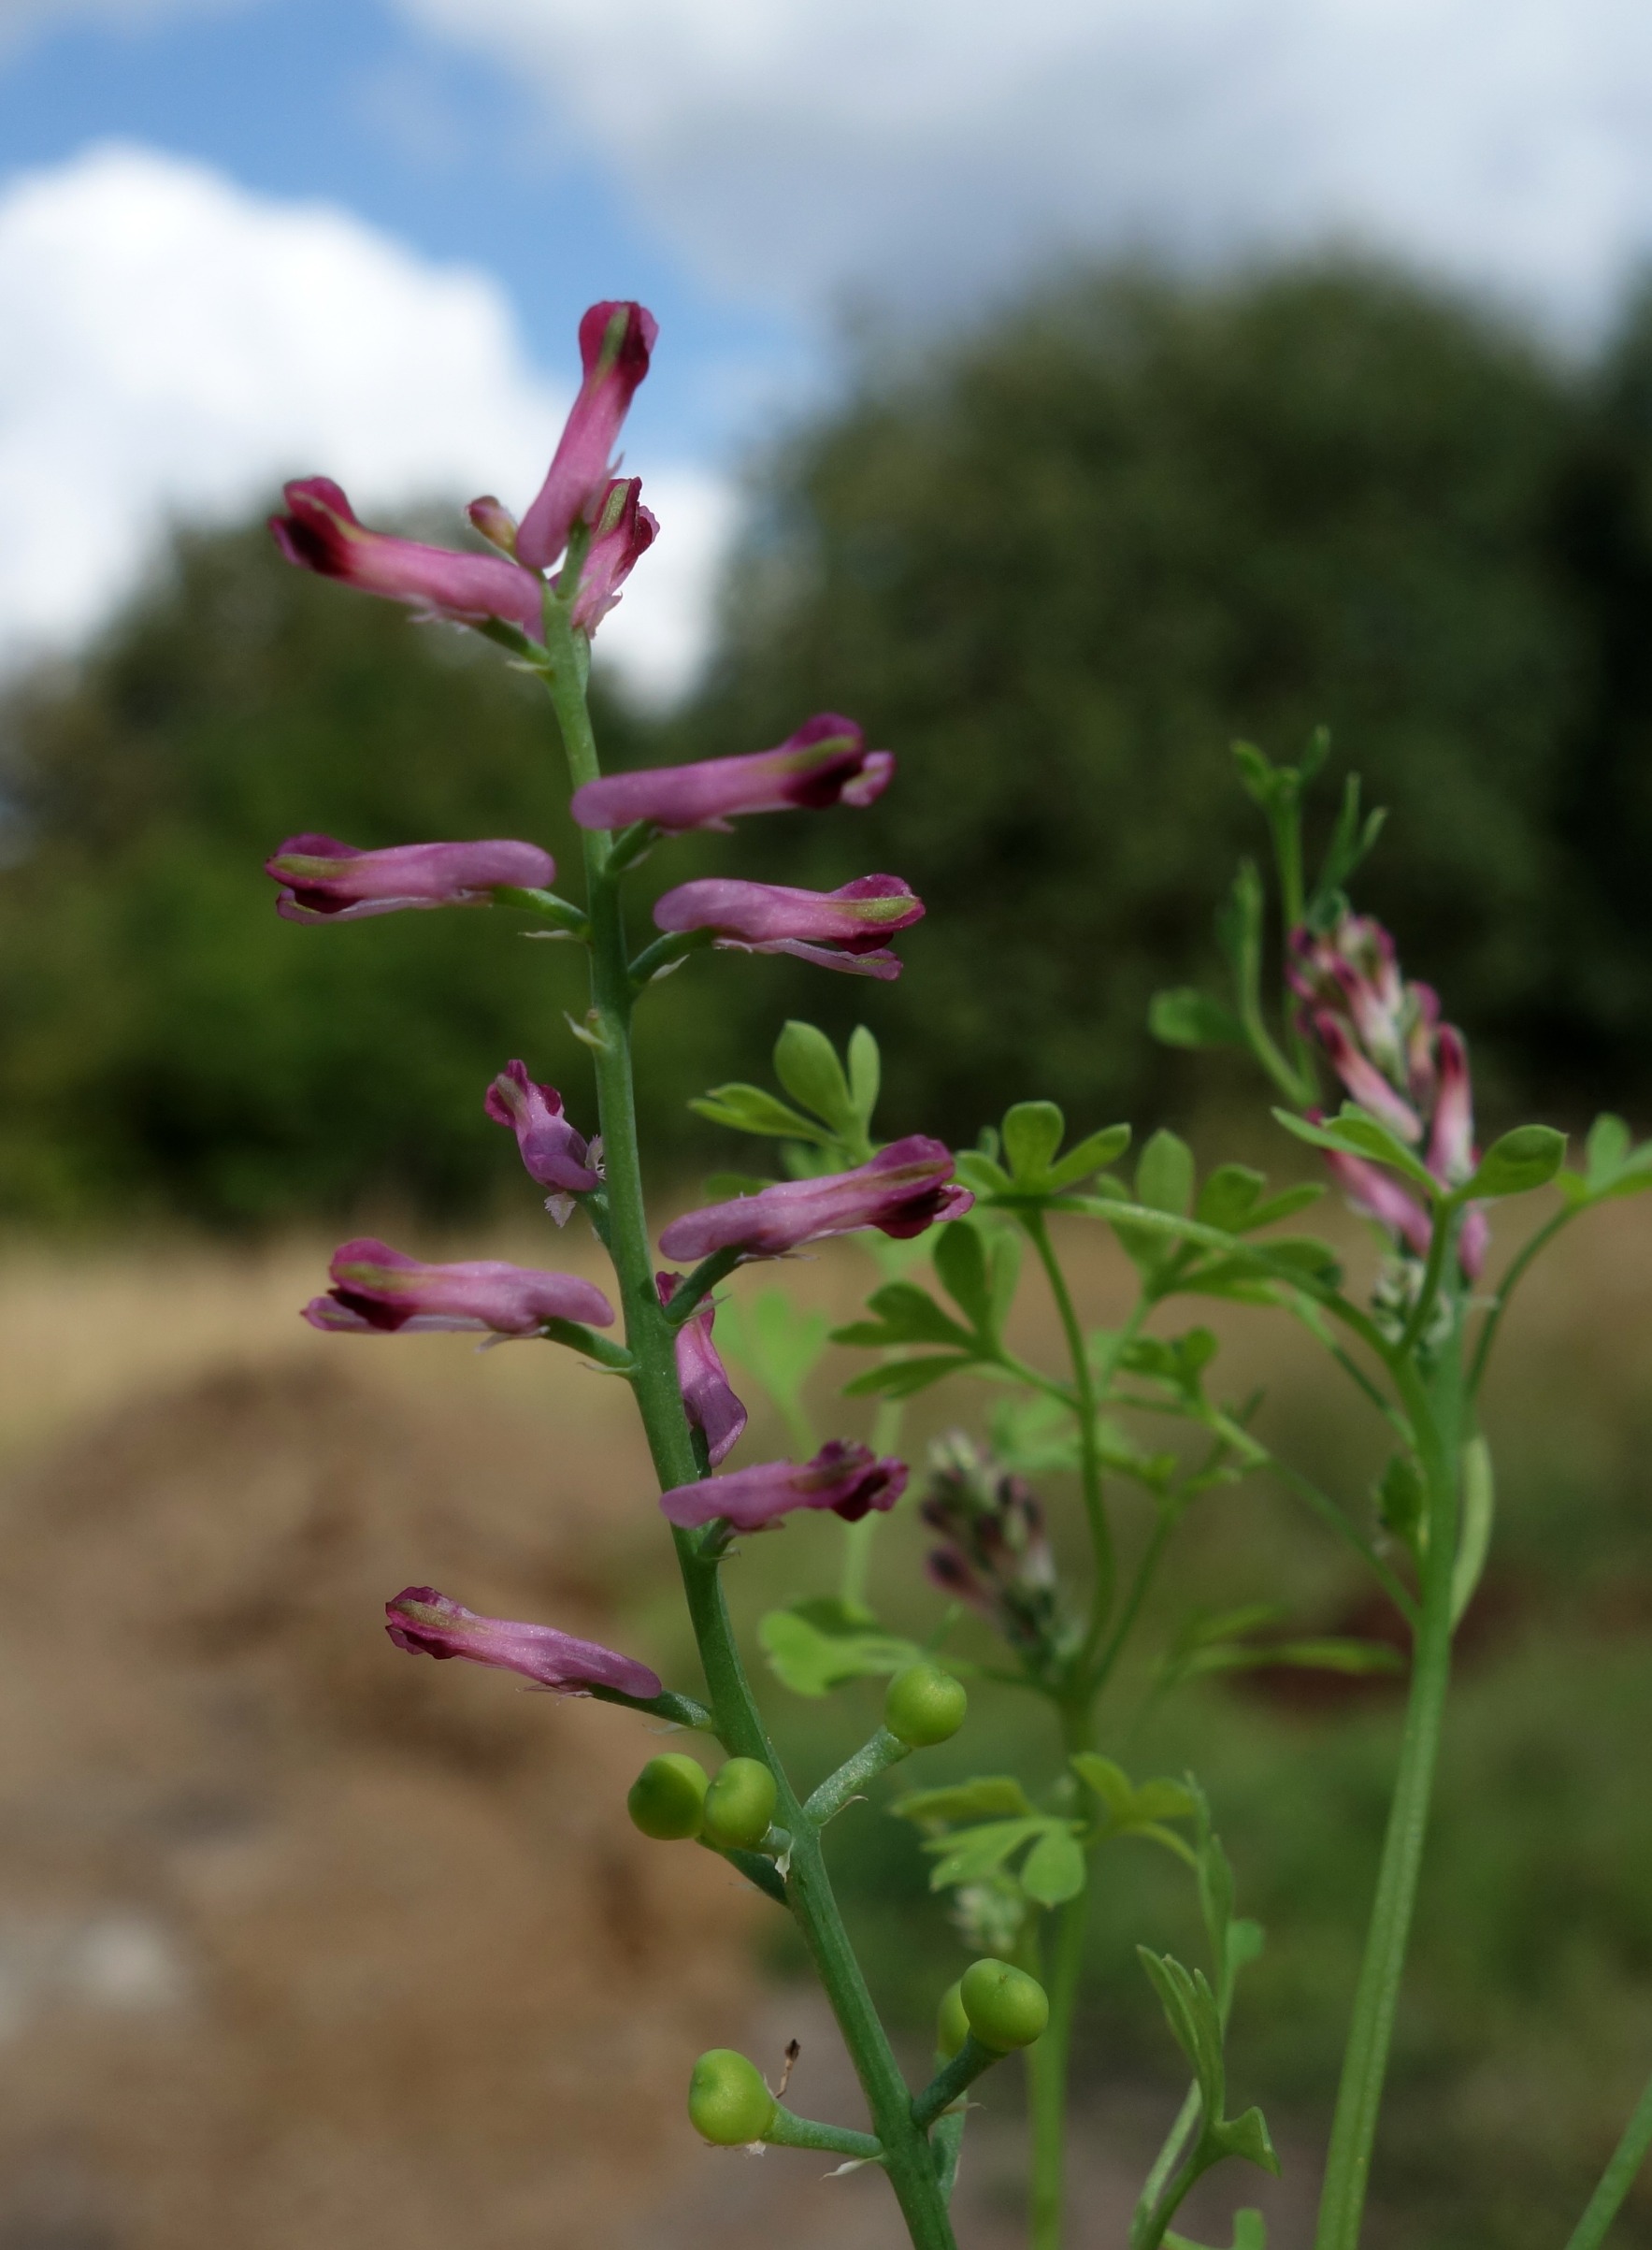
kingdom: Plantae
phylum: Tracheophyta
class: Magnoliopsida
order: Ranunculales
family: Papaveraceae
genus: Fumaria
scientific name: Fumaria officinalis
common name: Læge-jordrøg
